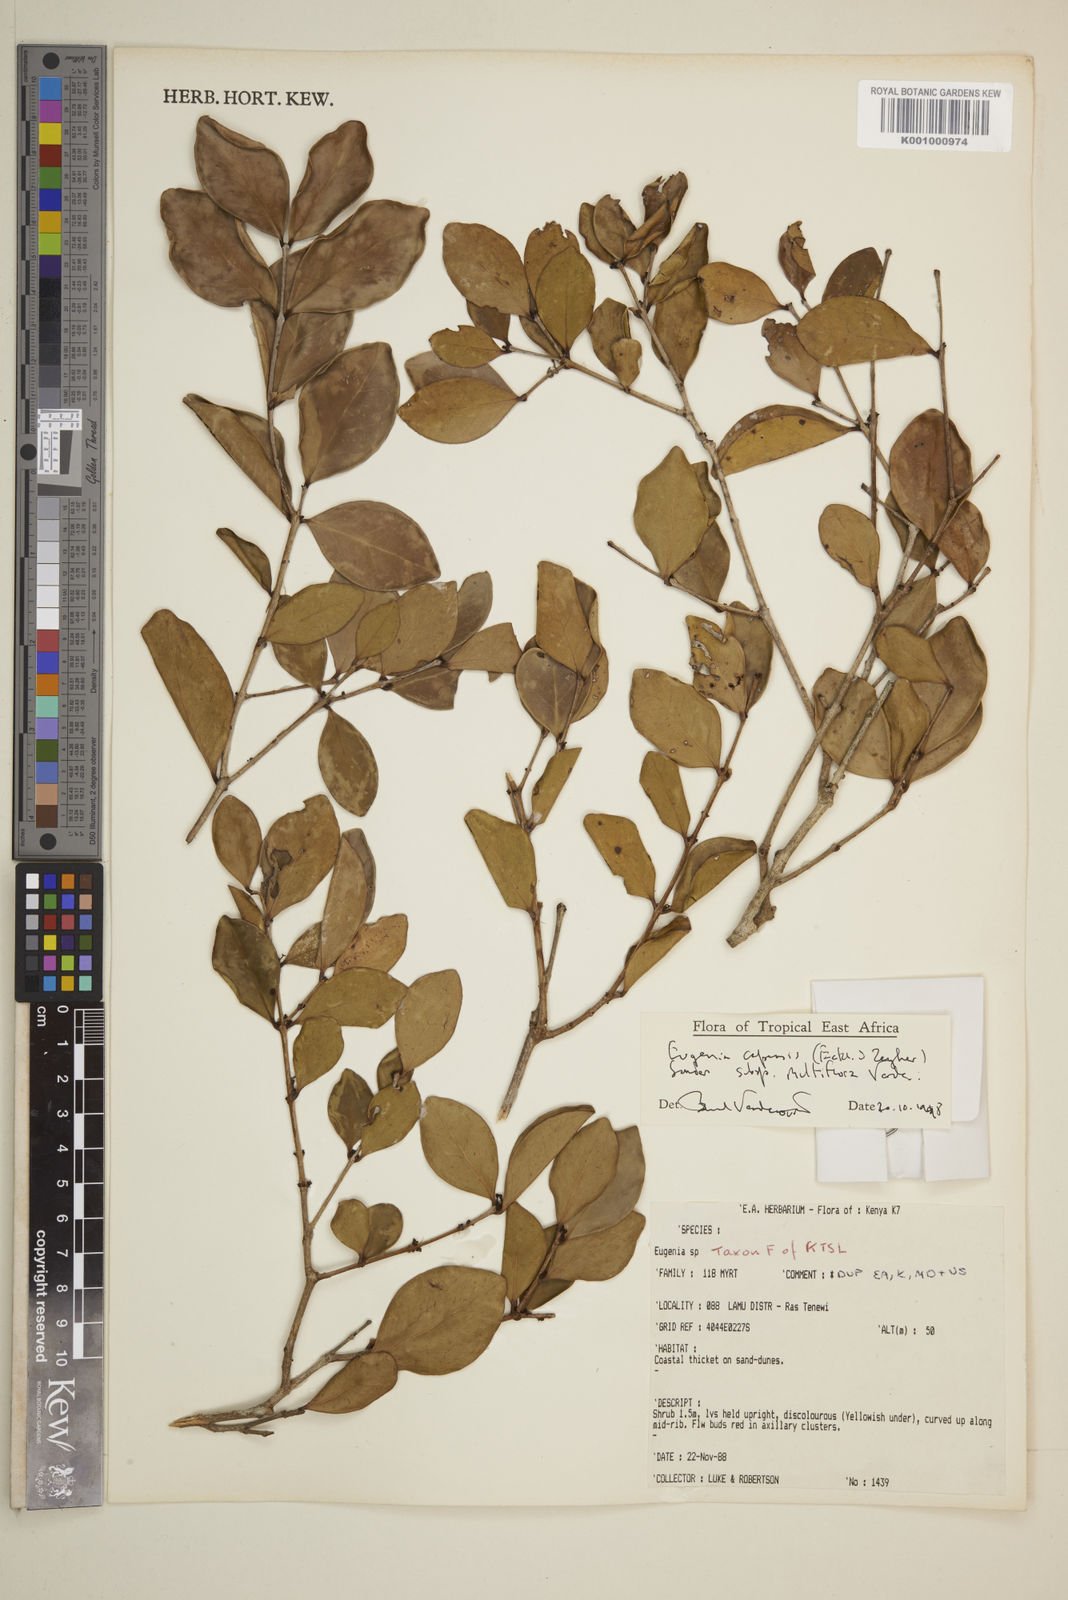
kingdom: Plantae
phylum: Tracheophyta
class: Magnoliopsida
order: Myrtales
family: Myrtaceae
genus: Eugenia
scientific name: Eugenia capensis
